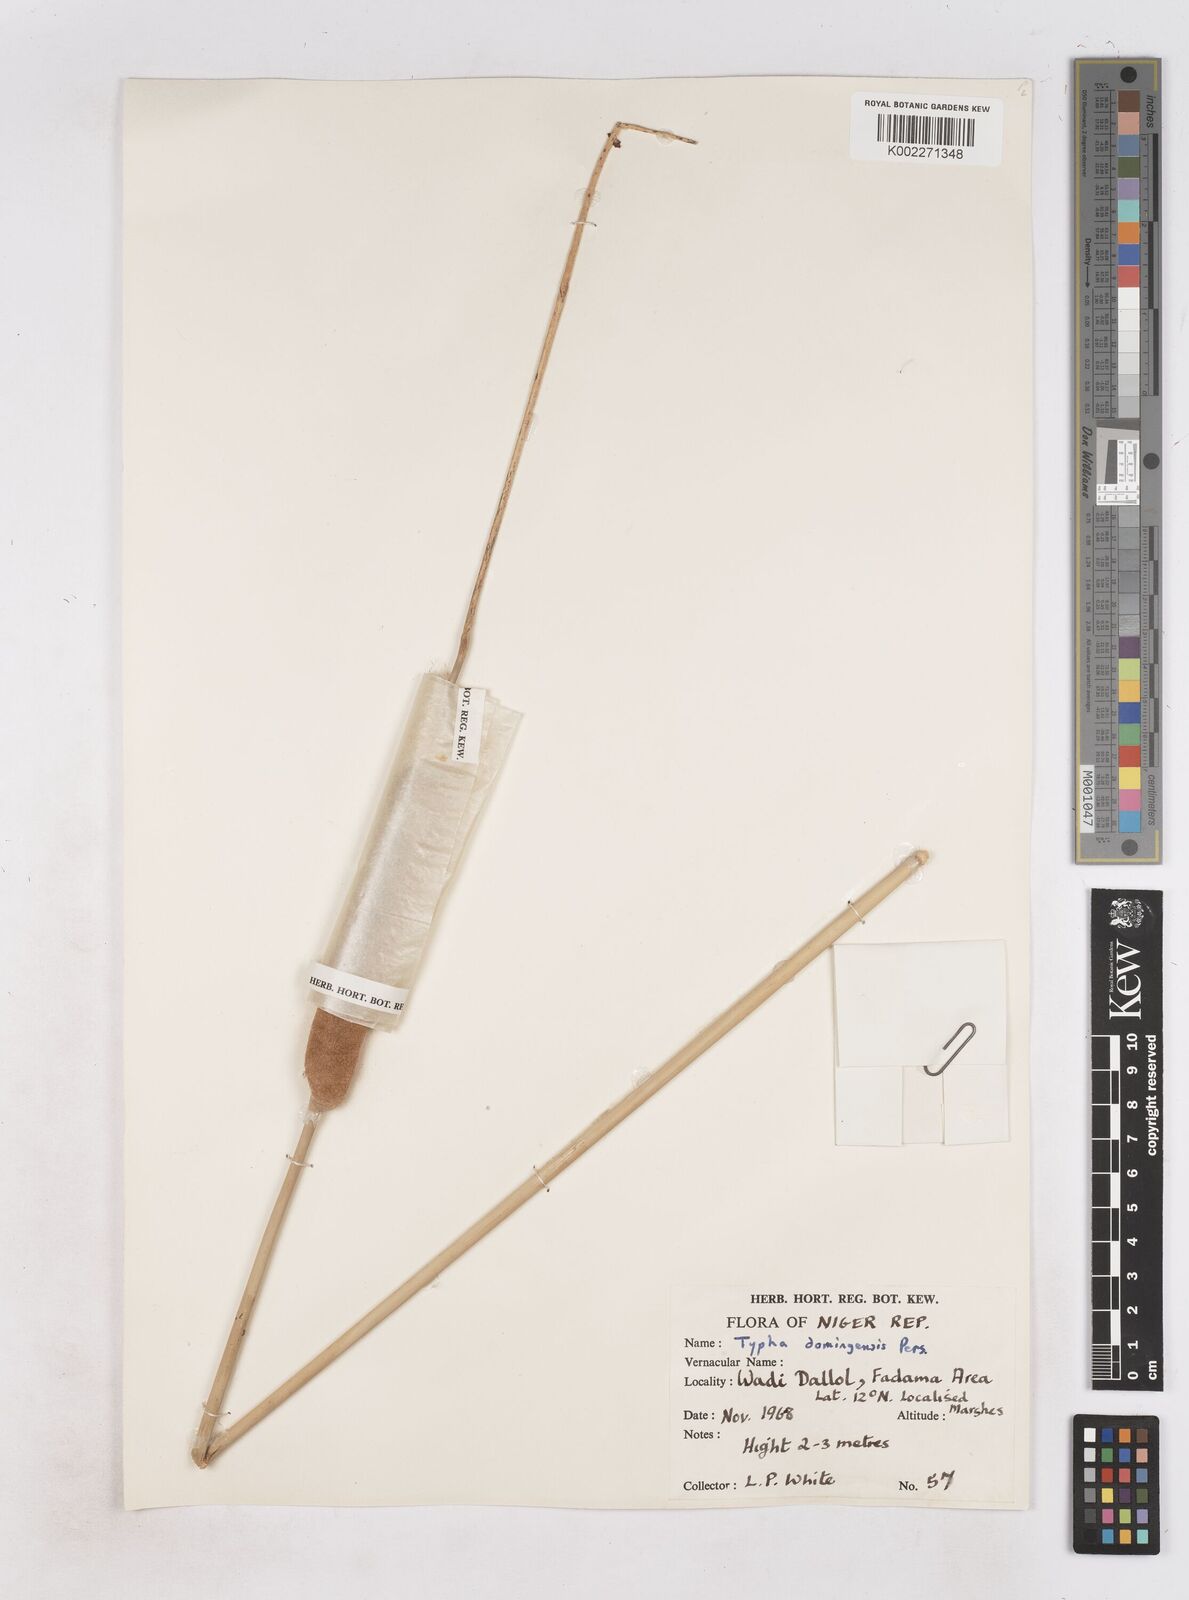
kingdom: Plantae
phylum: Tracheophyta
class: Liliopsida
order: Poales
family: Typhaceae
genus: Typha
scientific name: Typha domingensis
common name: Southern cattail
